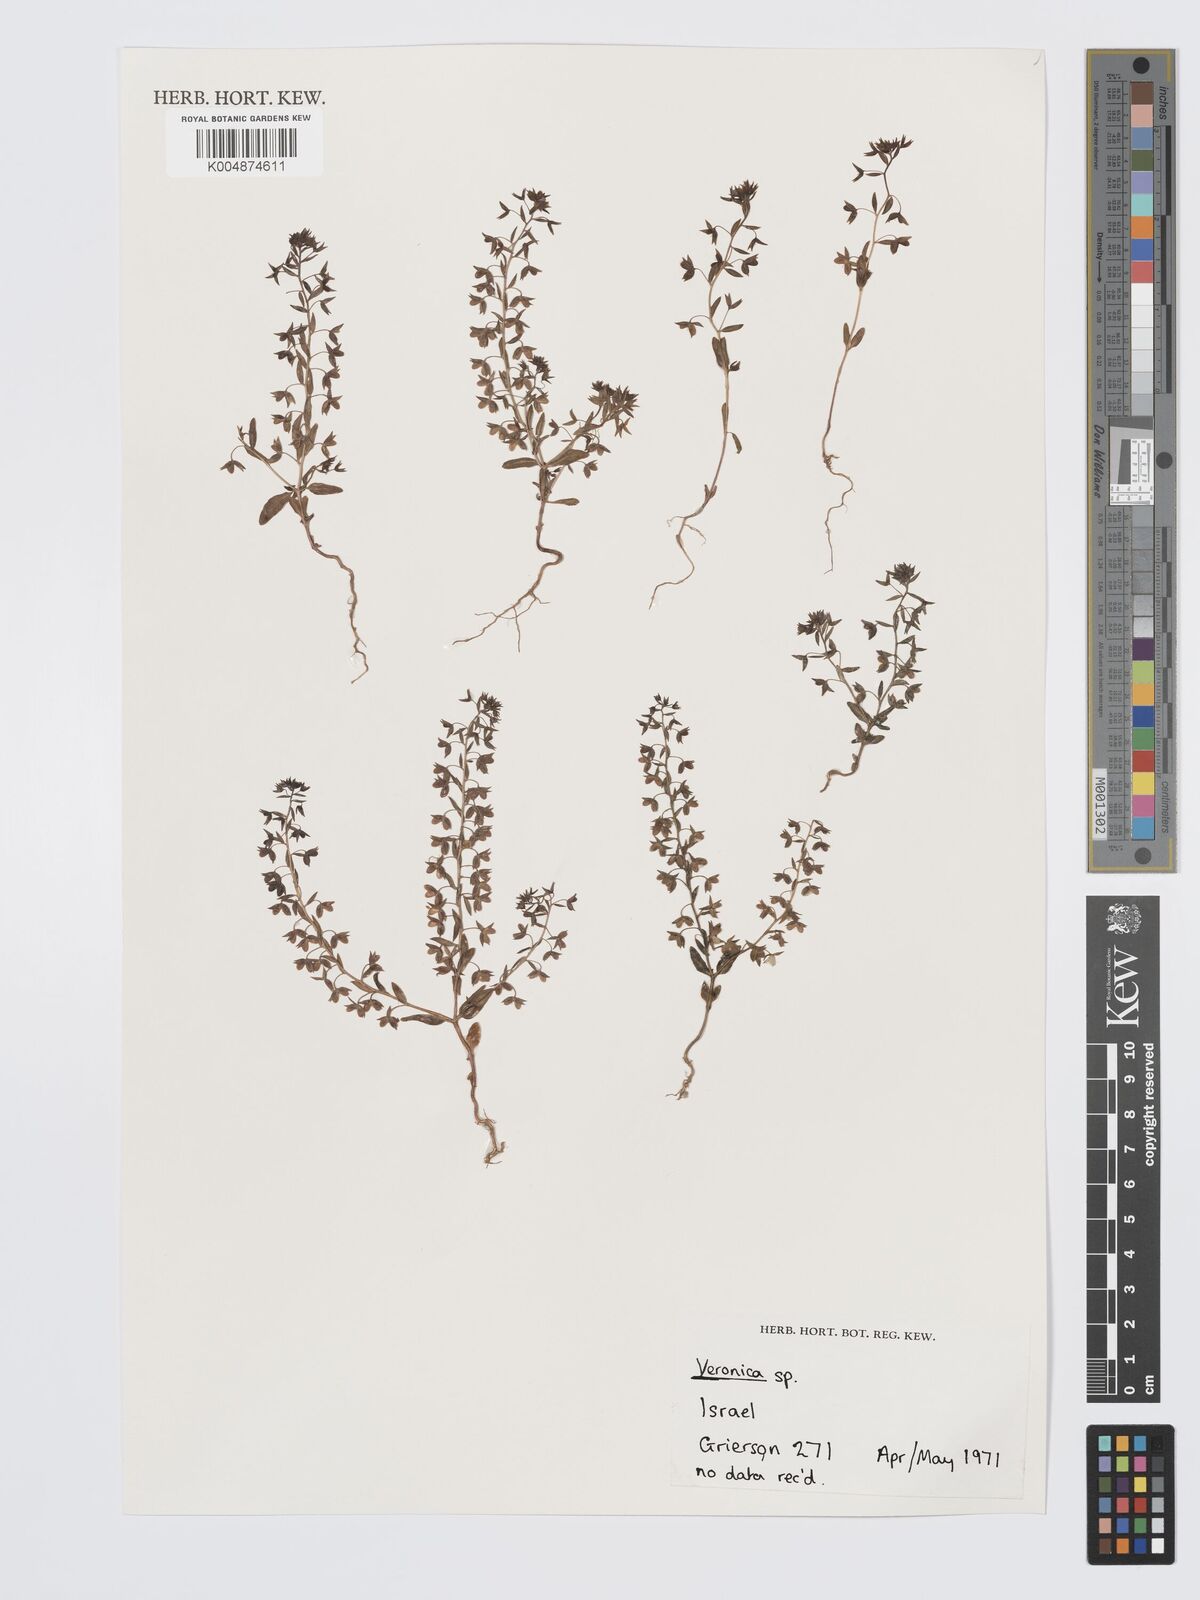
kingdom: Plantae
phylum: Tracheophyta
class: Magnoliopsida
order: Lamiales
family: Plantaginaceae
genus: Veronica
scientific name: Veronica
